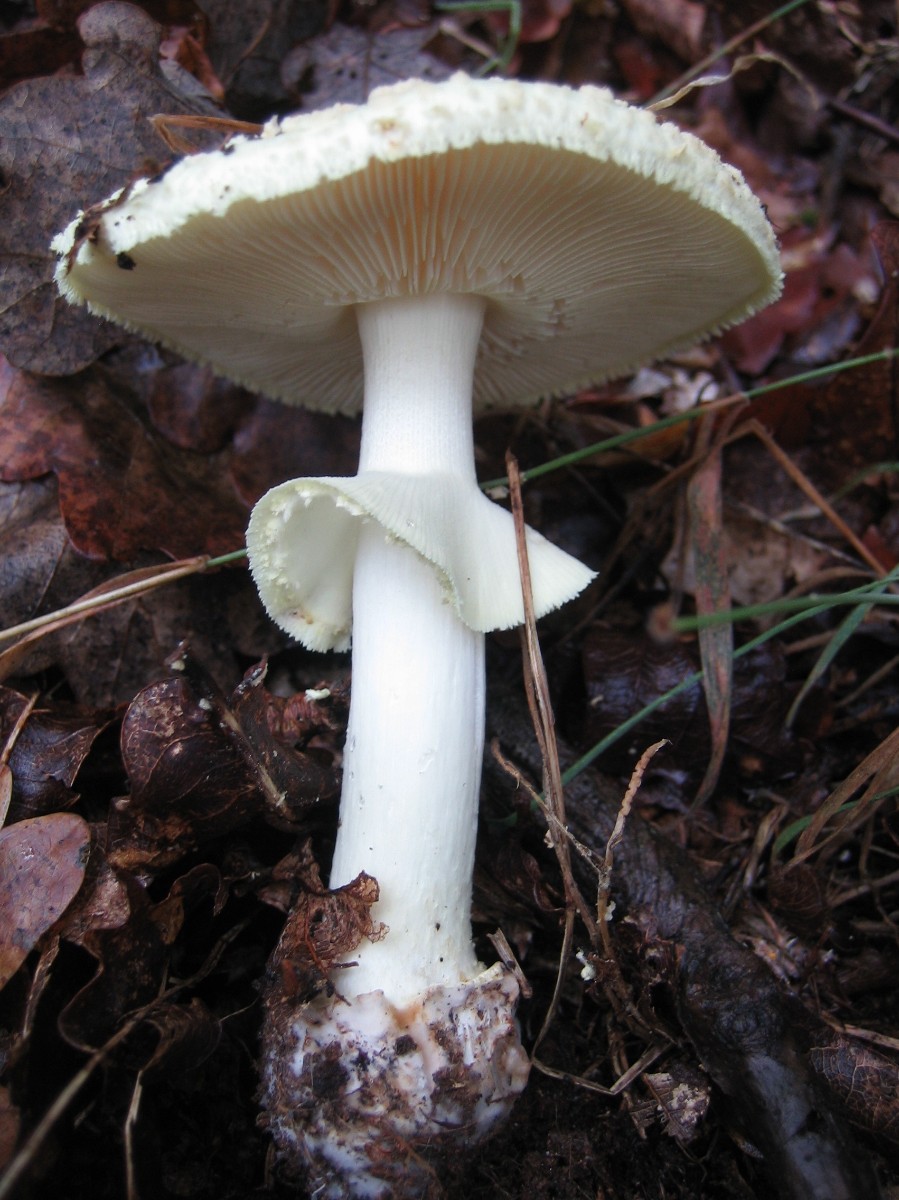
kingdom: Fungi
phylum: Basidiomycota
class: Agaricomycetes
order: Agaricales
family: Amanitaceae
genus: Amanita
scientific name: Amanita citrina
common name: kugleknoldet fluesvamp
